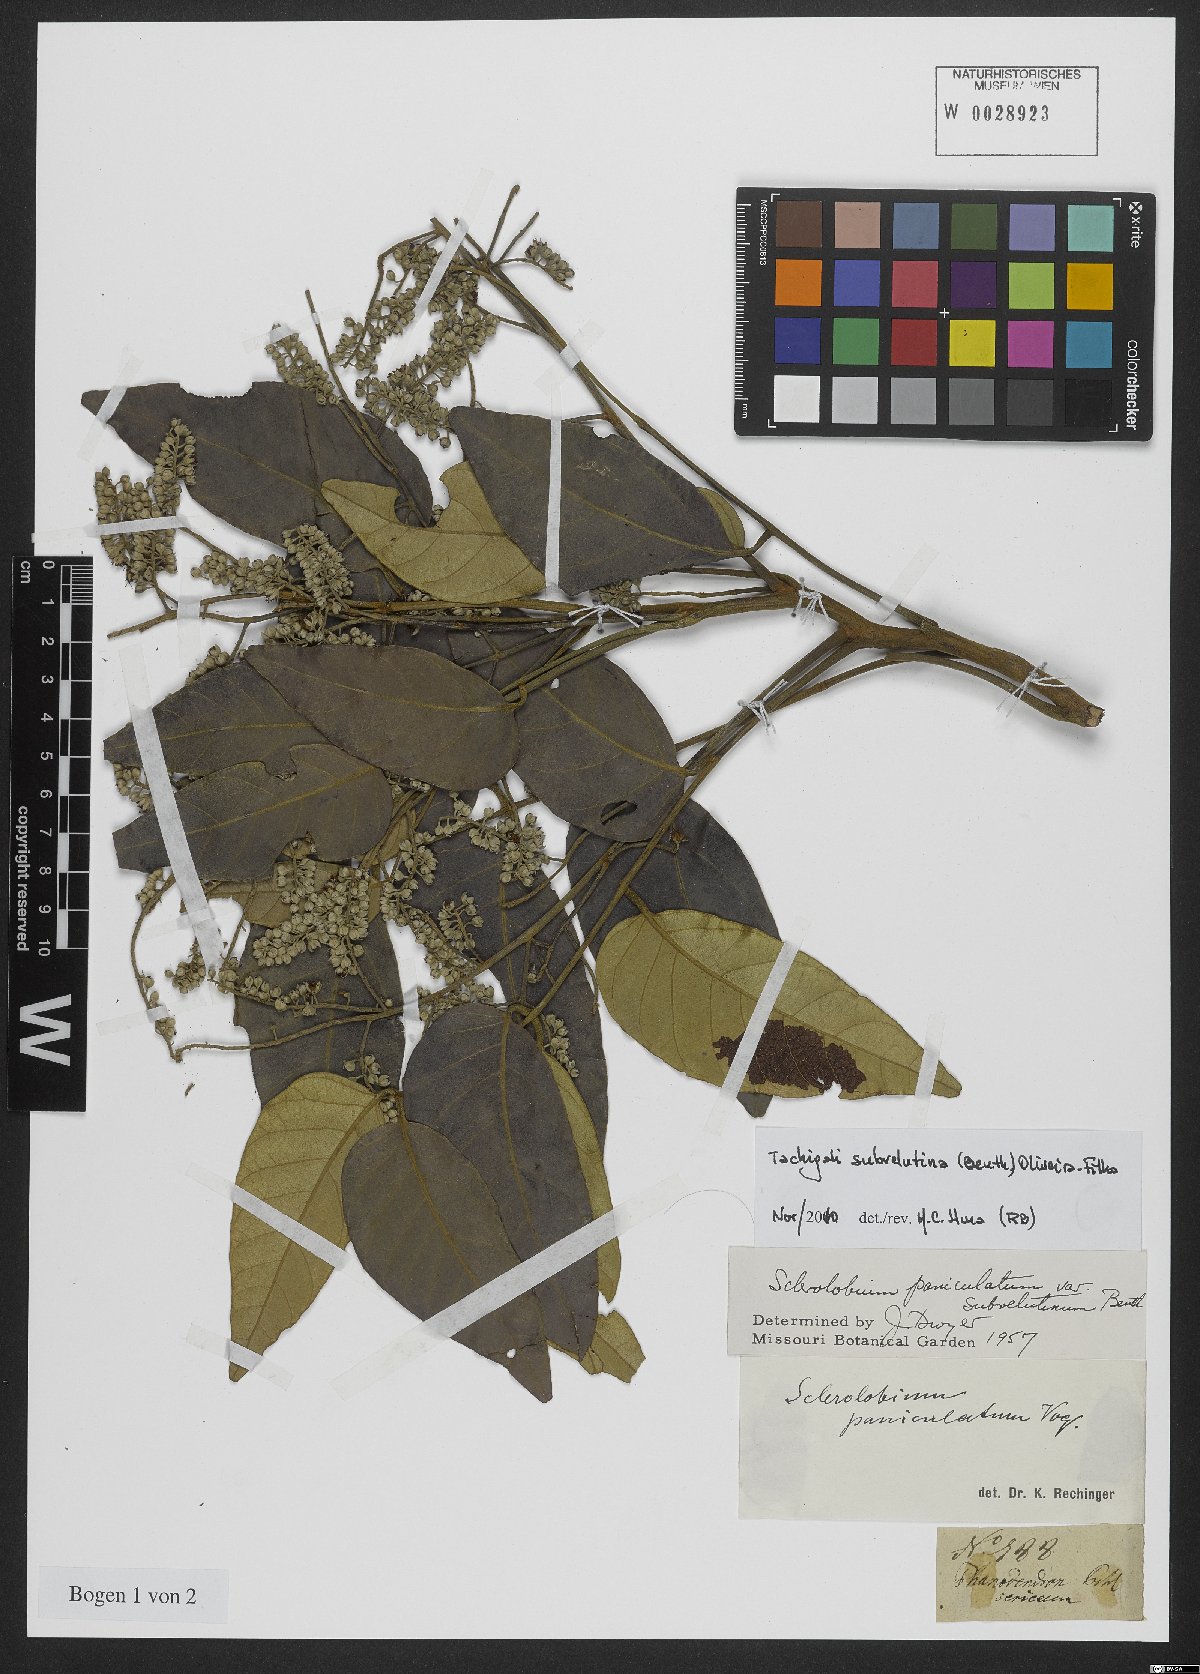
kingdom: Plantae
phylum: Tracheophyta
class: Magnoliopsida
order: Fabales
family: Fabaceae
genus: Tachigali
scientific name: Tachigali subvelutina
